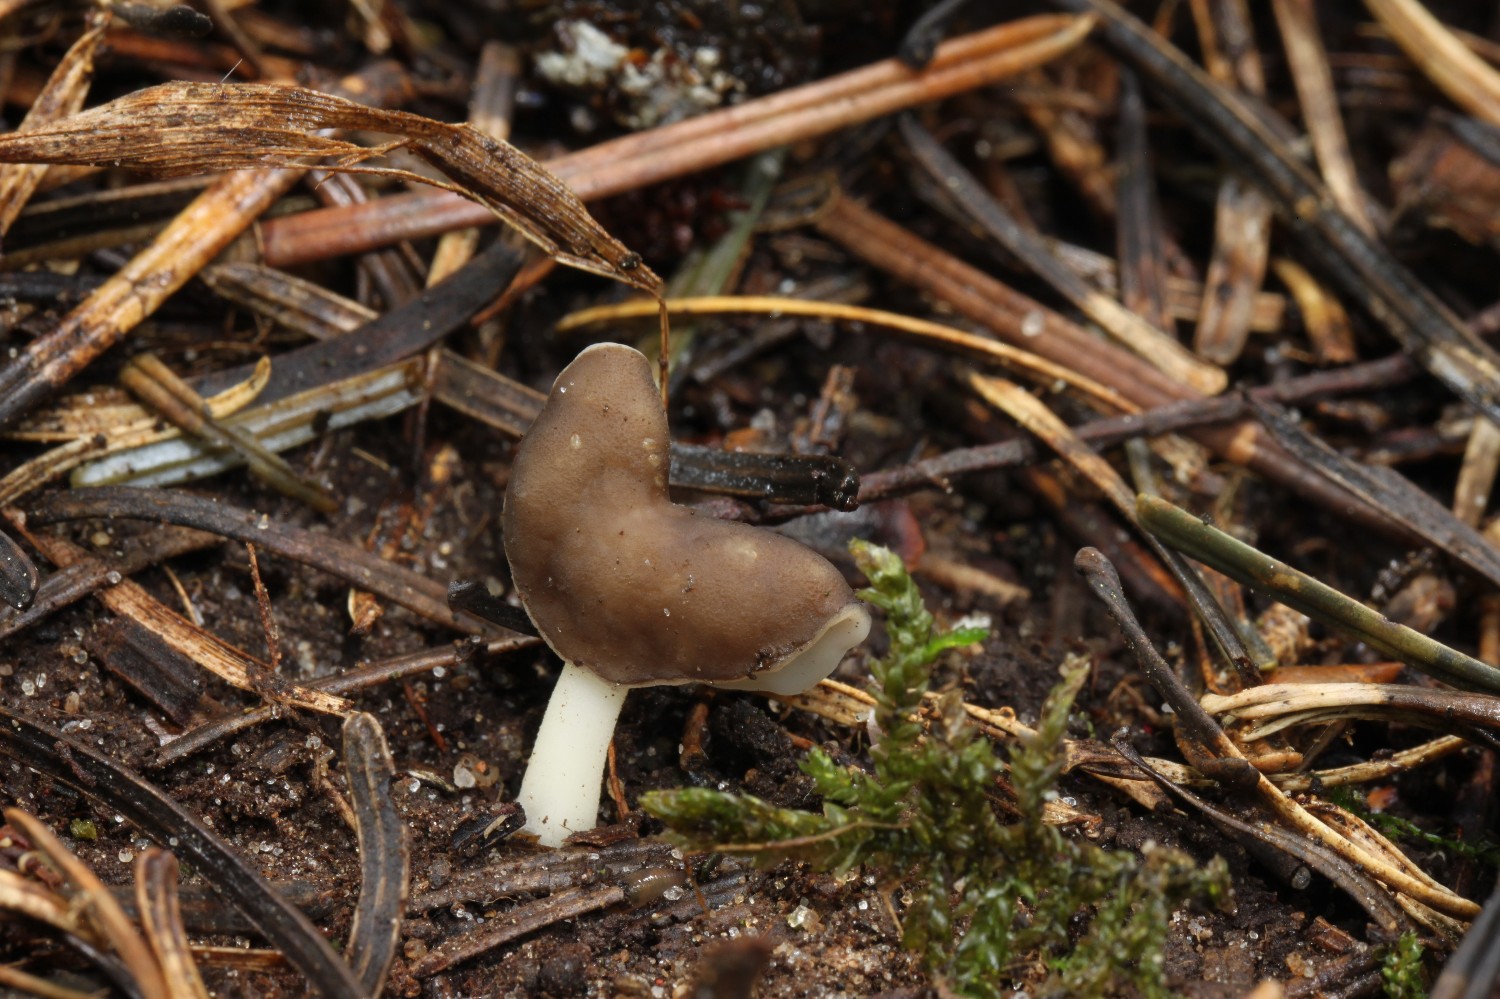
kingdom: Fungi
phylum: Ascomycota
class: Pezizomycetes
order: Pezizales
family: Helvellaceae
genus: Helvella
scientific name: Helvella elastica
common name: elastik-foldhat
